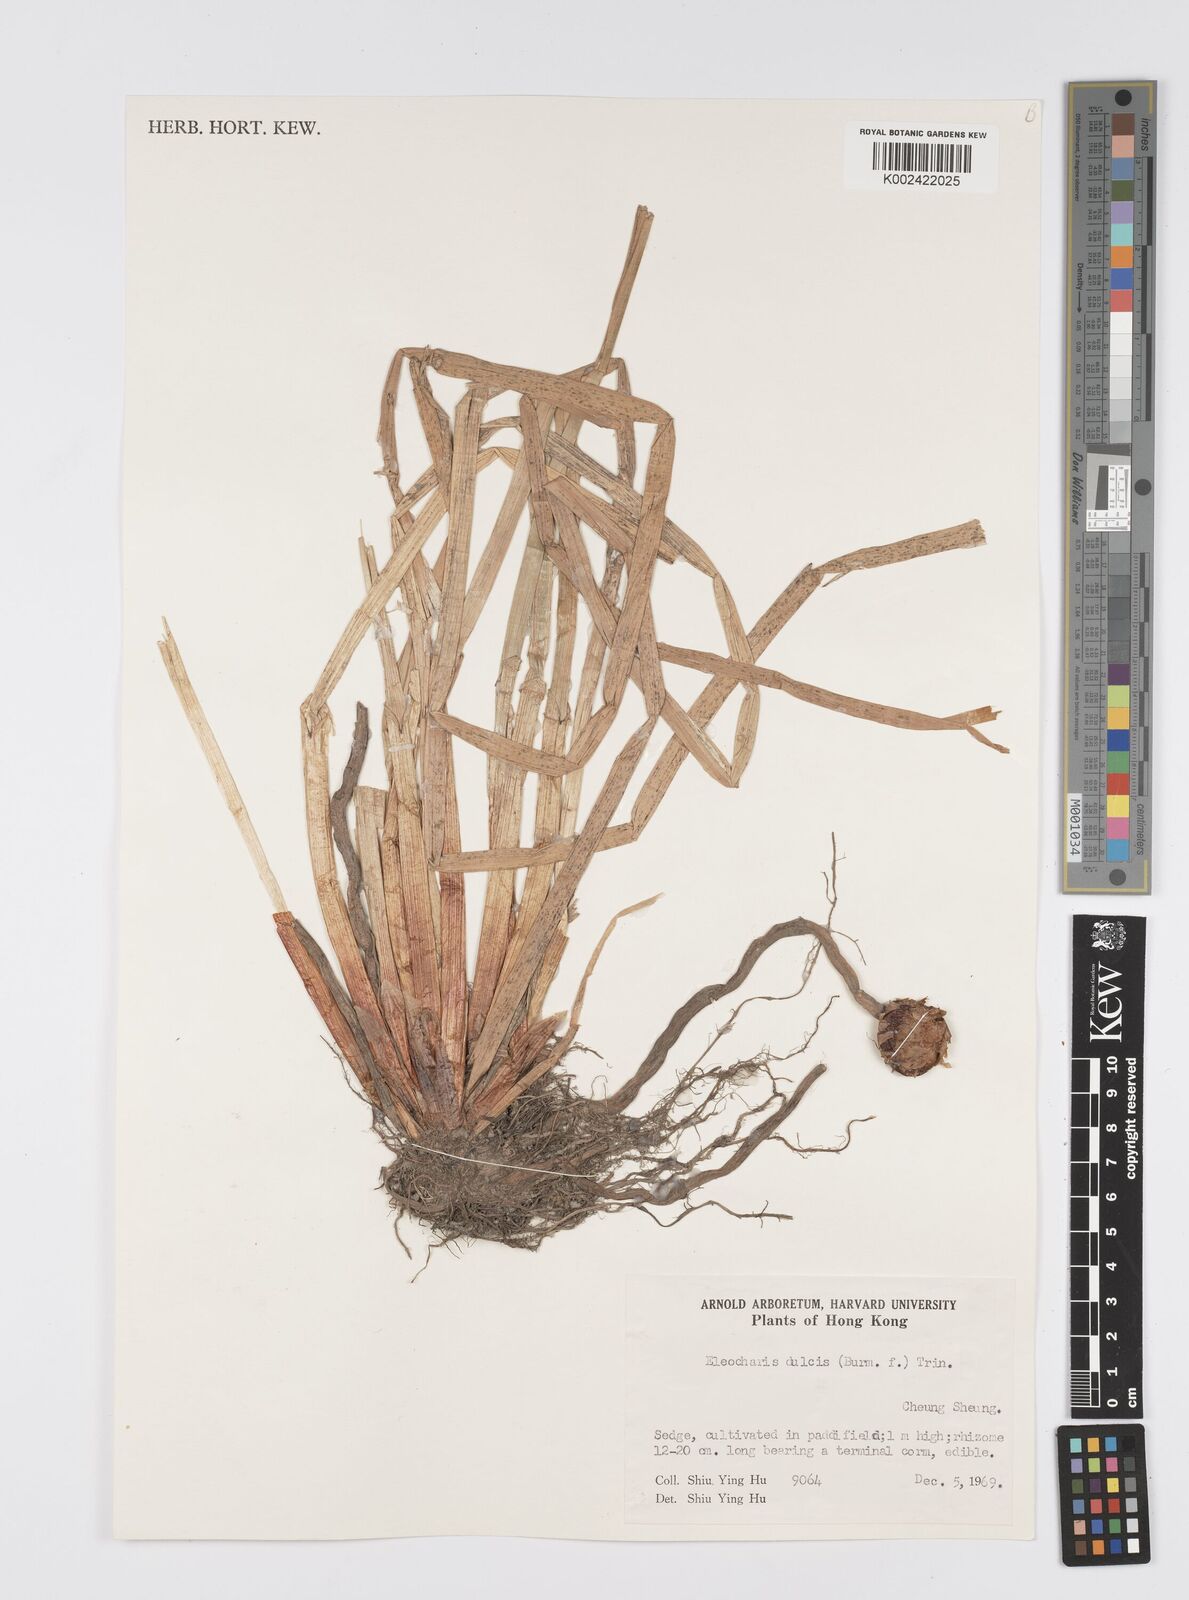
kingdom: Plantae
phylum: Tracheophyta
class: Liliopsida
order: Poales
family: Cyperaceae
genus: Eleocharis
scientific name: Eleocharis dulcis
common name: Chinese water chestnut
